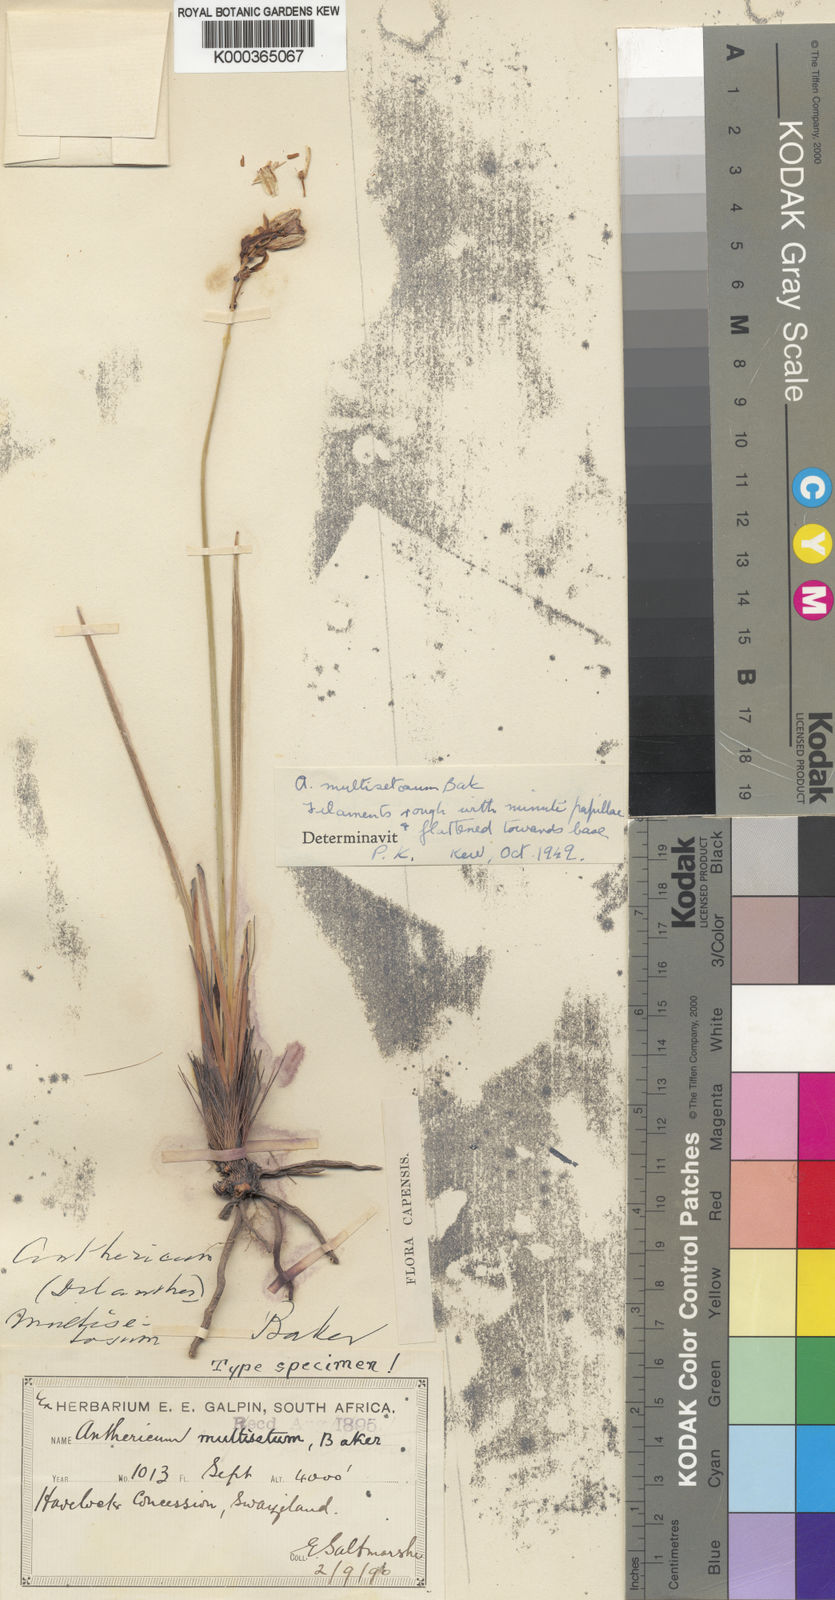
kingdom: Plantae
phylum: Tracheophyta
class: Liliopsida
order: Asparagales
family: Asparagaceae
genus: Chlorophytum
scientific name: Chlorophytum angulicaule
